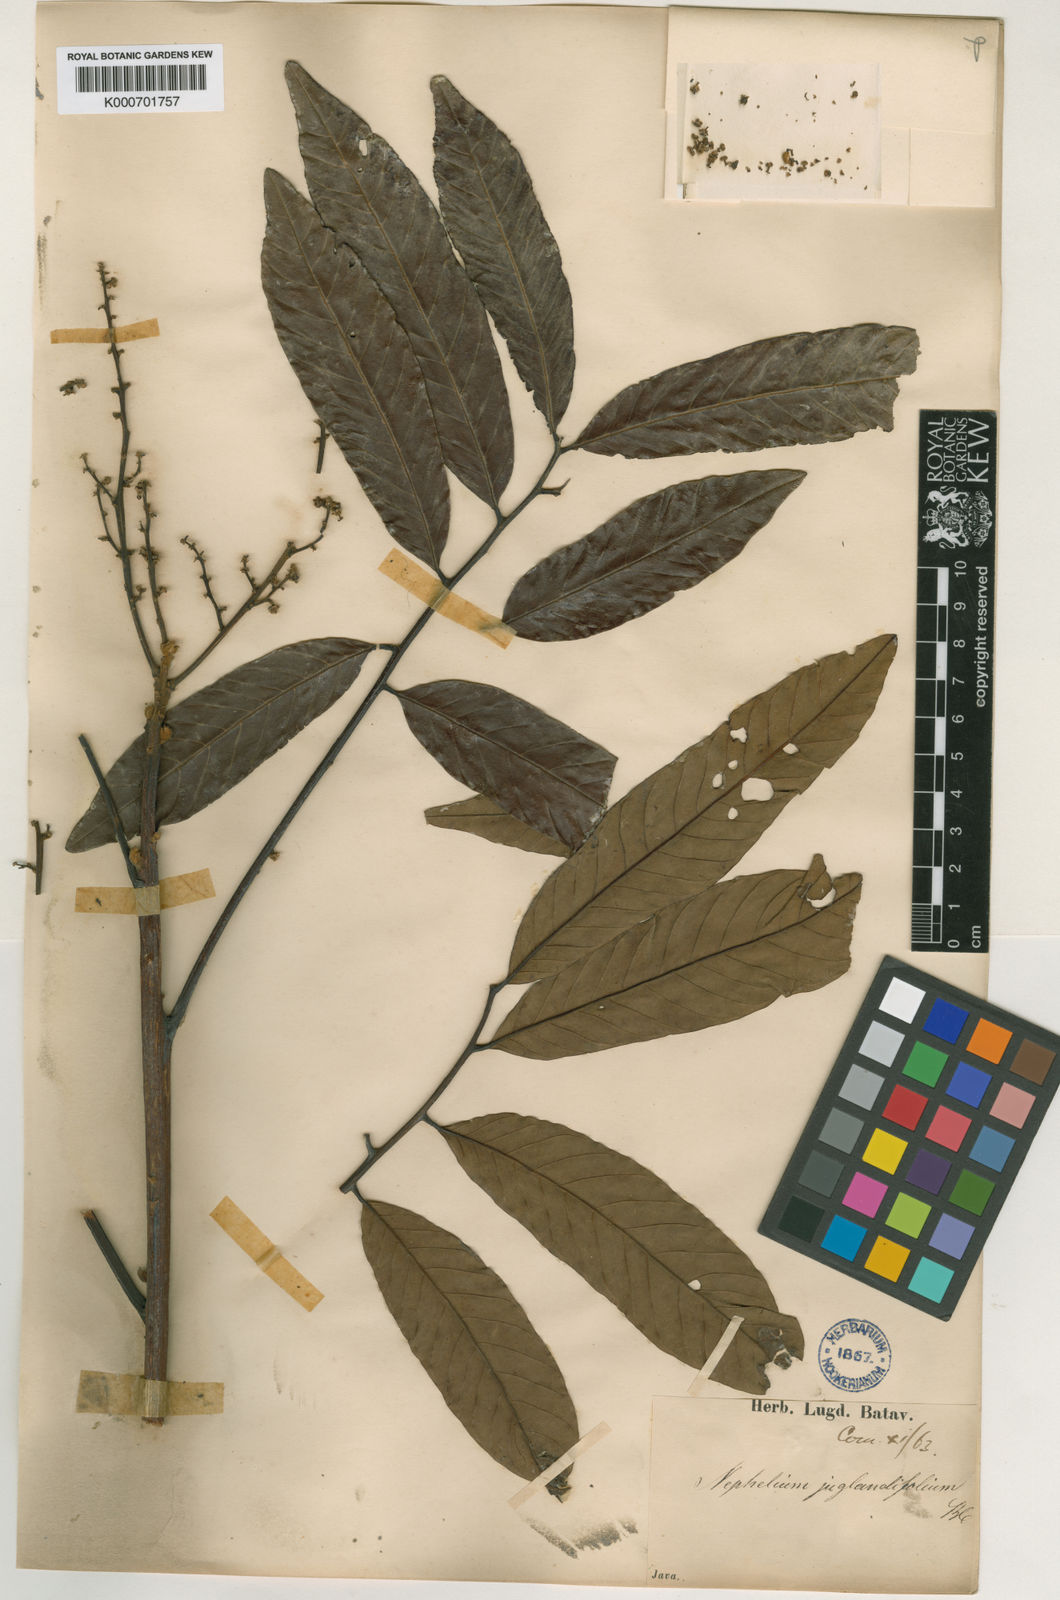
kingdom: Plantae
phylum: Tracheophyta
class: Magnoliopsida
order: Sapindales
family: Sapindaceae
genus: Nephelium
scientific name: Nephelium juglandifolium
